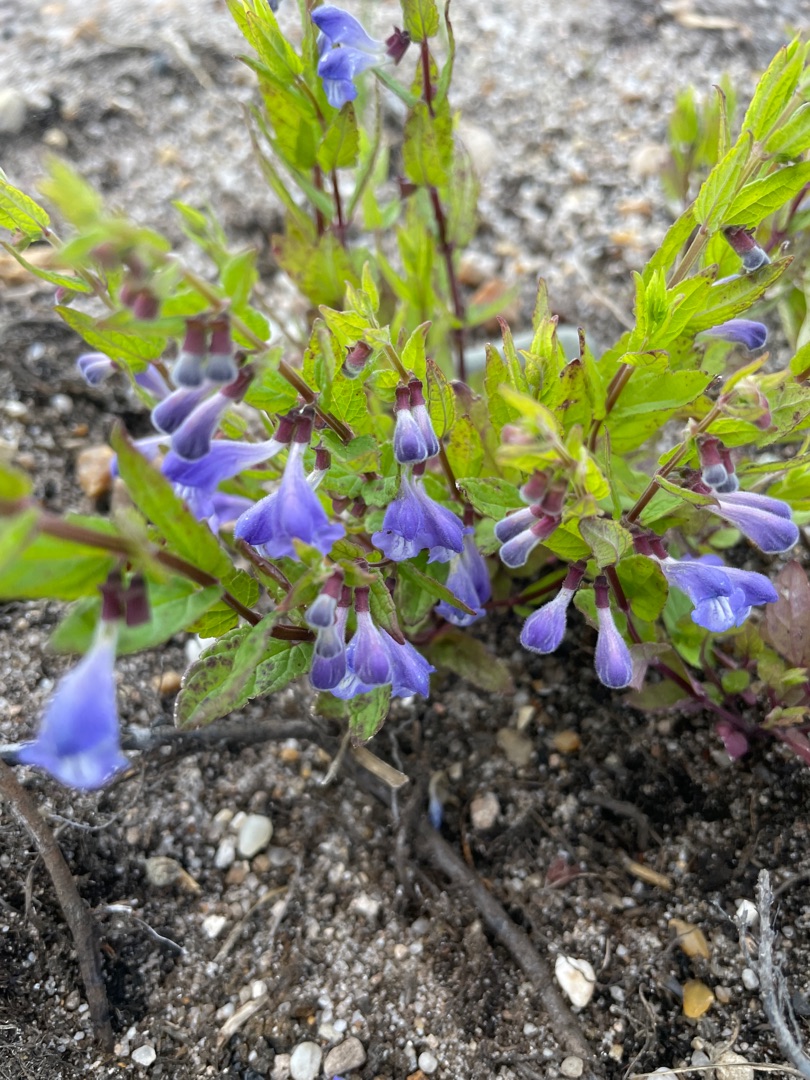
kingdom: Plantae
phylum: Tracheophyta
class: Magnoliopsida
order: Lamiales
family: Lamiaceae
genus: Scutellaria
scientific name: Scutellaria galericulata
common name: Almindelig skjolddrager
